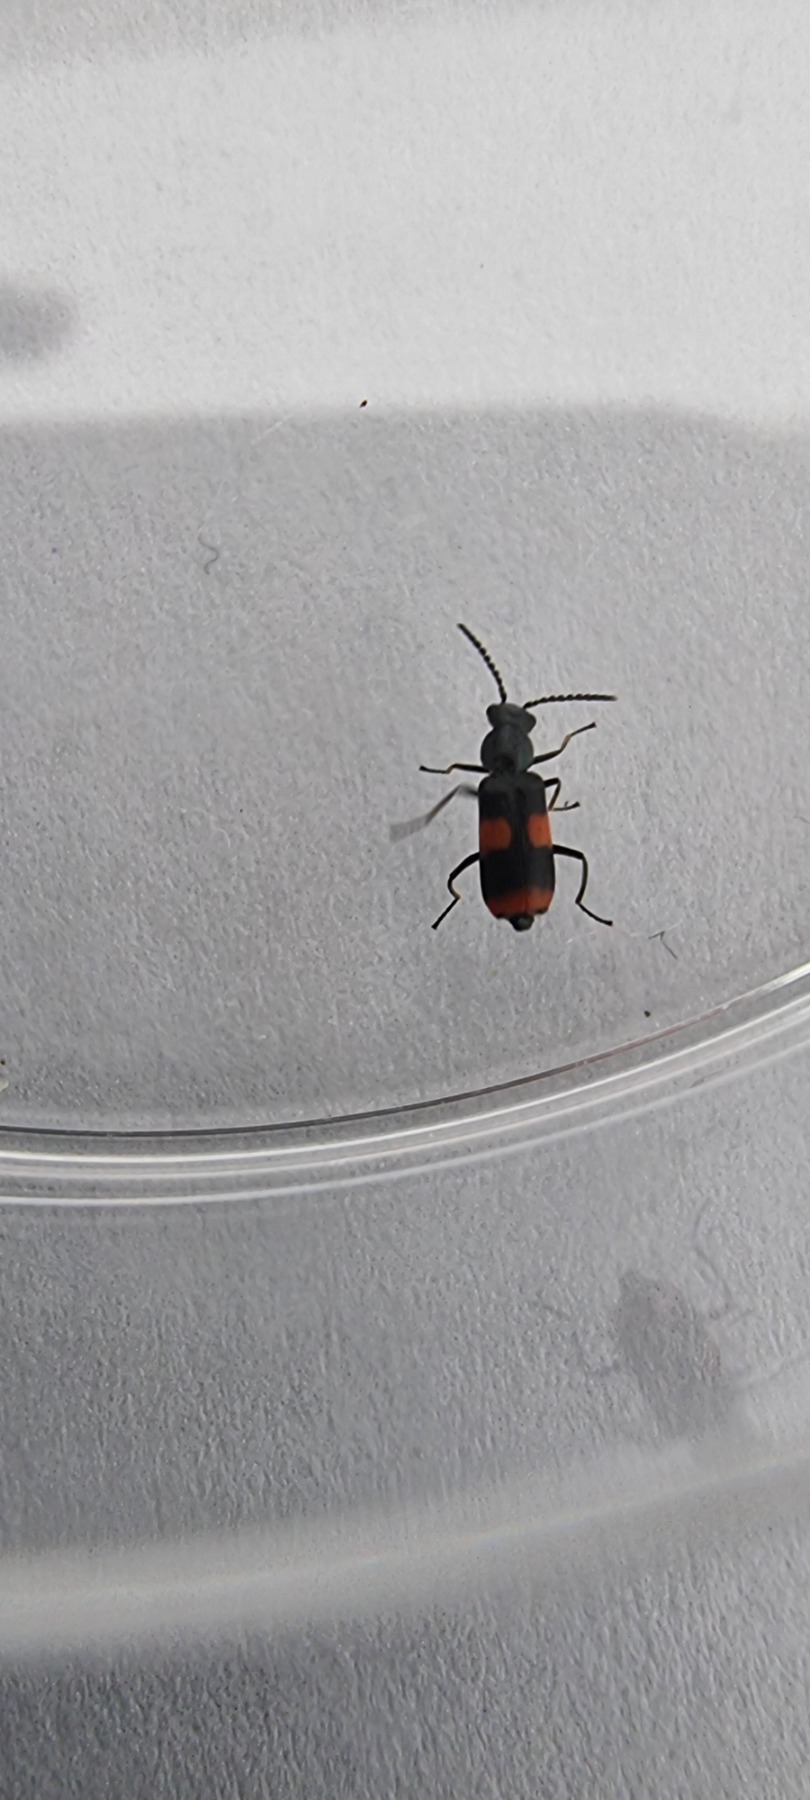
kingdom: Animalia
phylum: Arthropoda
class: Insecta
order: Coleoptera
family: Melyridae
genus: Anthocomus
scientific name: Anthocomus fasciatus
